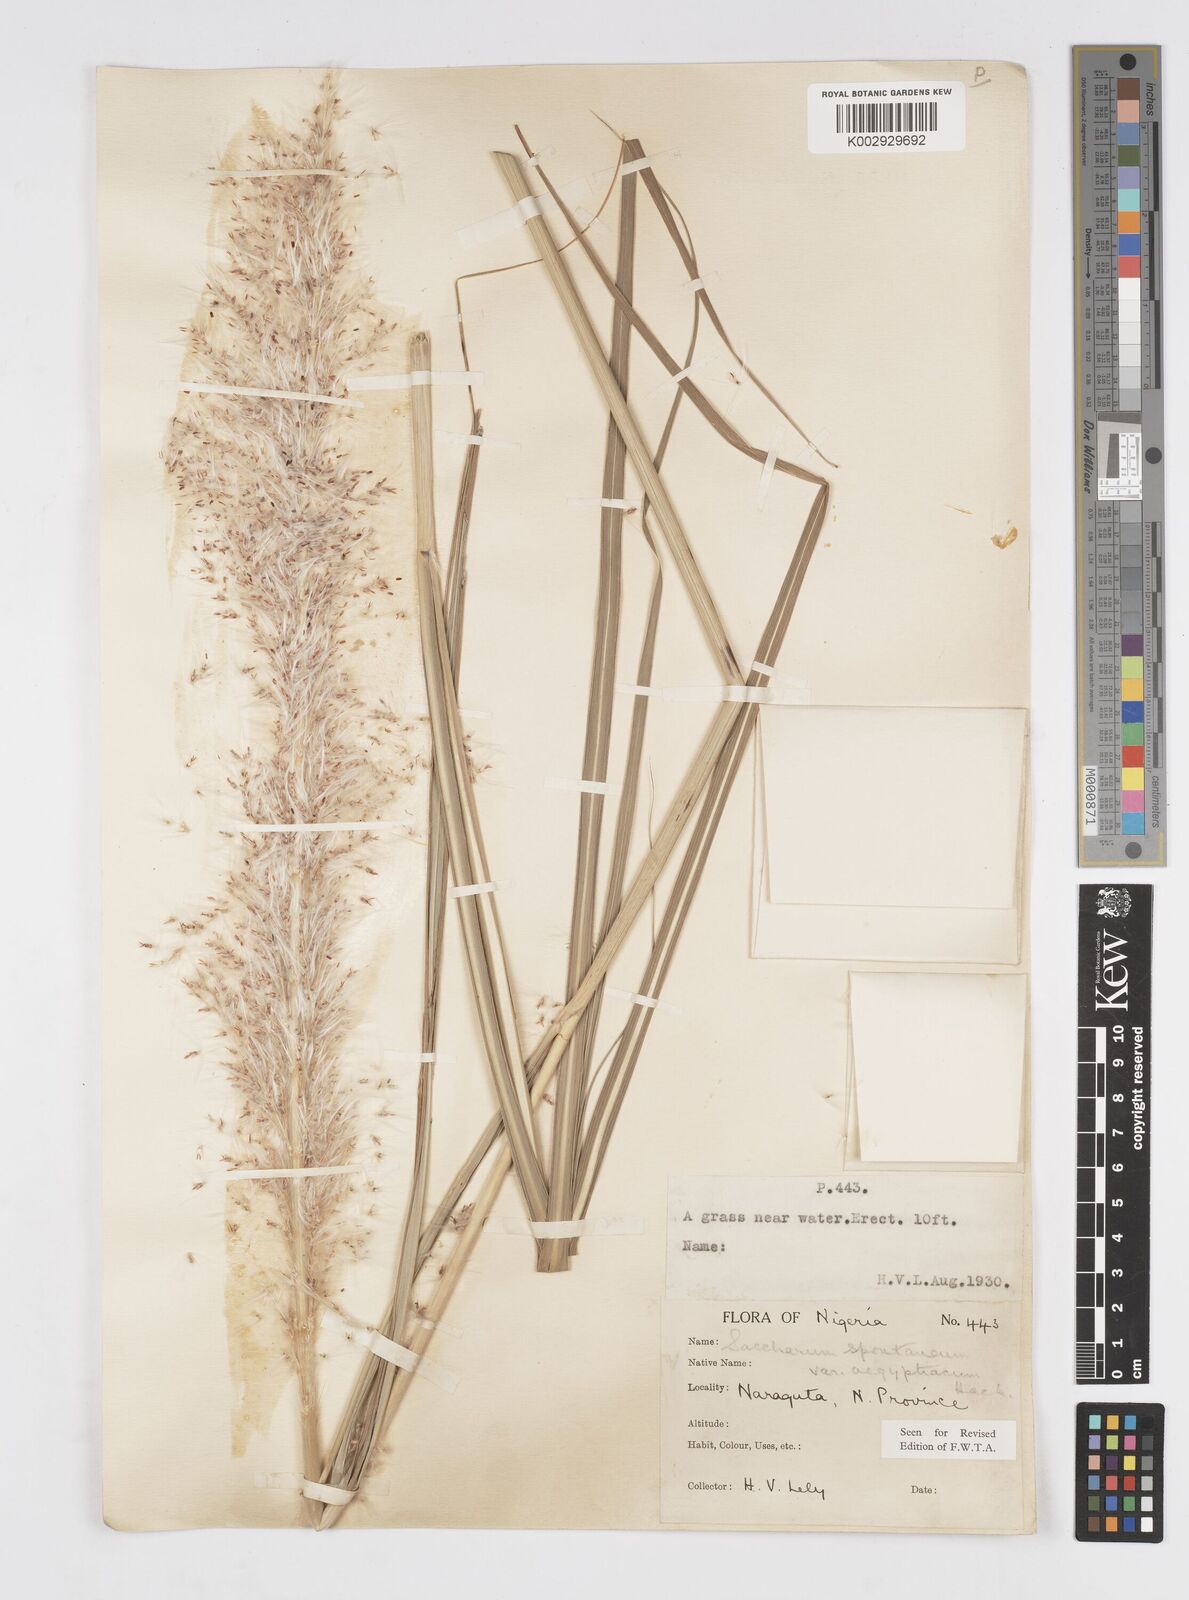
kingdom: Plantae
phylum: Tracheophyta
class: Liliopsida
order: Poales
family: Poaceae
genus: Saccharum
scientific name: Saccharum spontaneum
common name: Wild sugarcane
